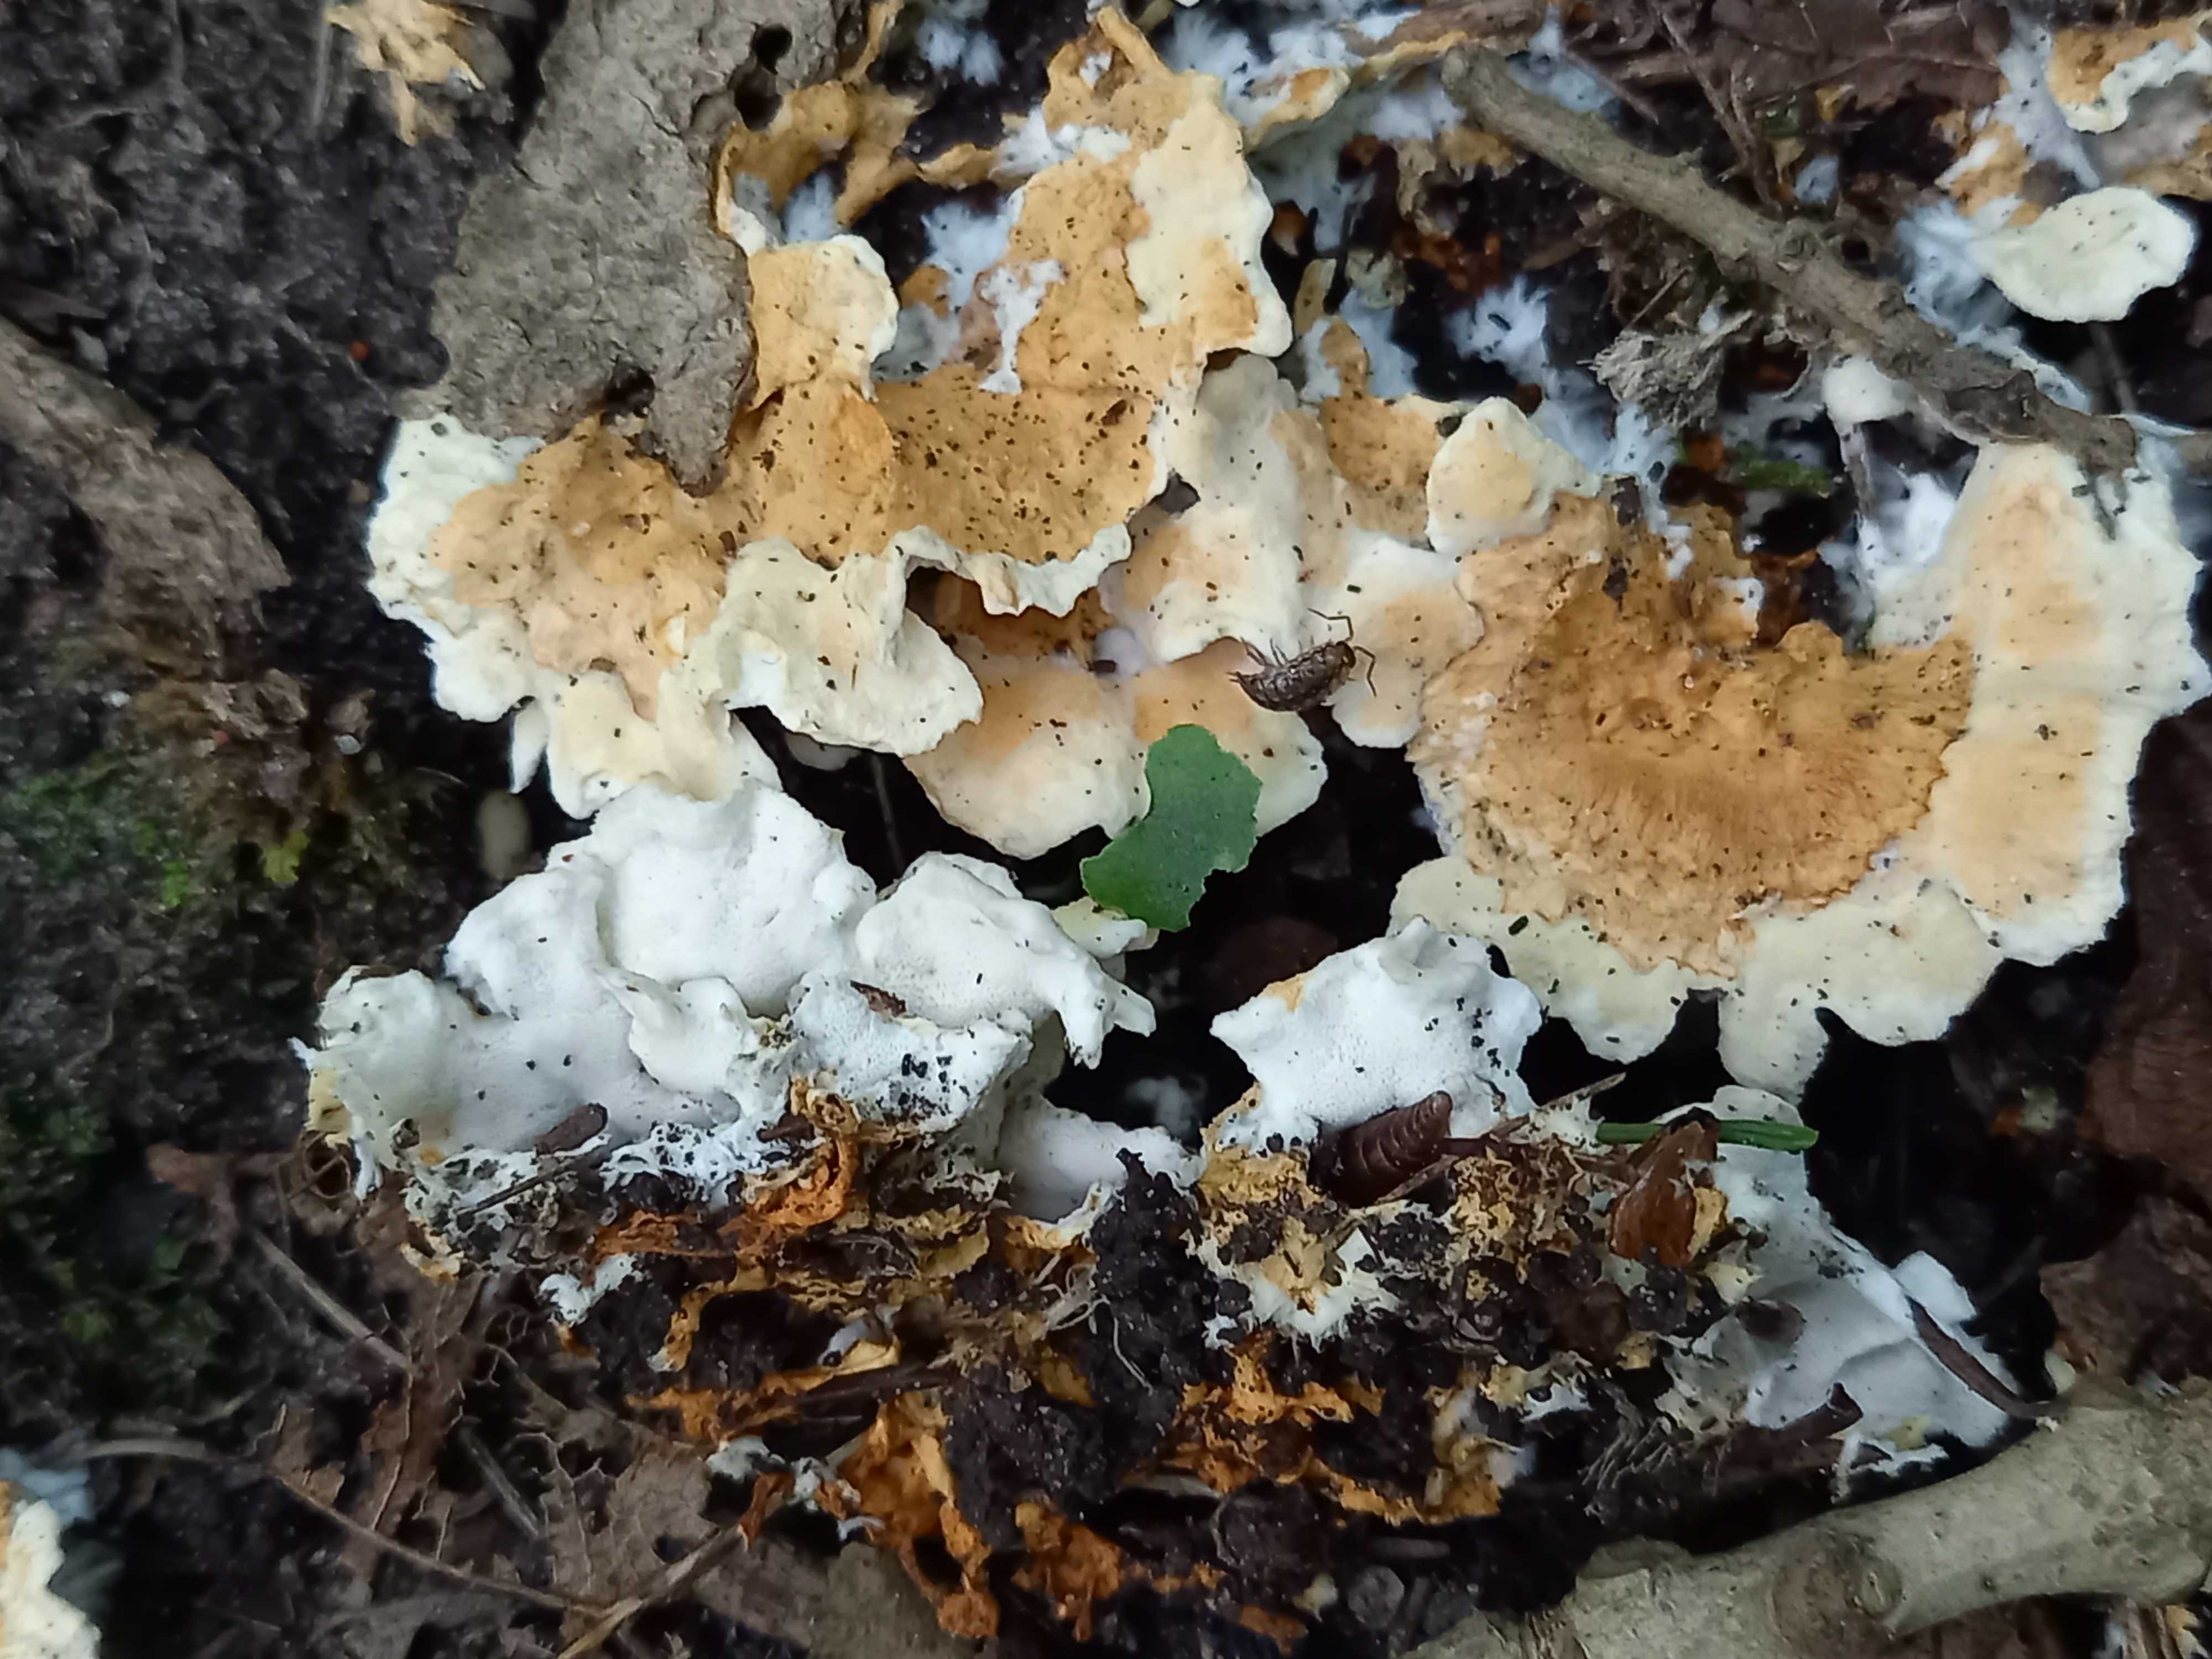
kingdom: Fungi
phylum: Basidiomycota
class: Agaricomycetes
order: Polyporales
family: Steccherinaceae
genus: Loweomyces
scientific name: Loweomyces wynneae
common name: krybende blødporesvamp
